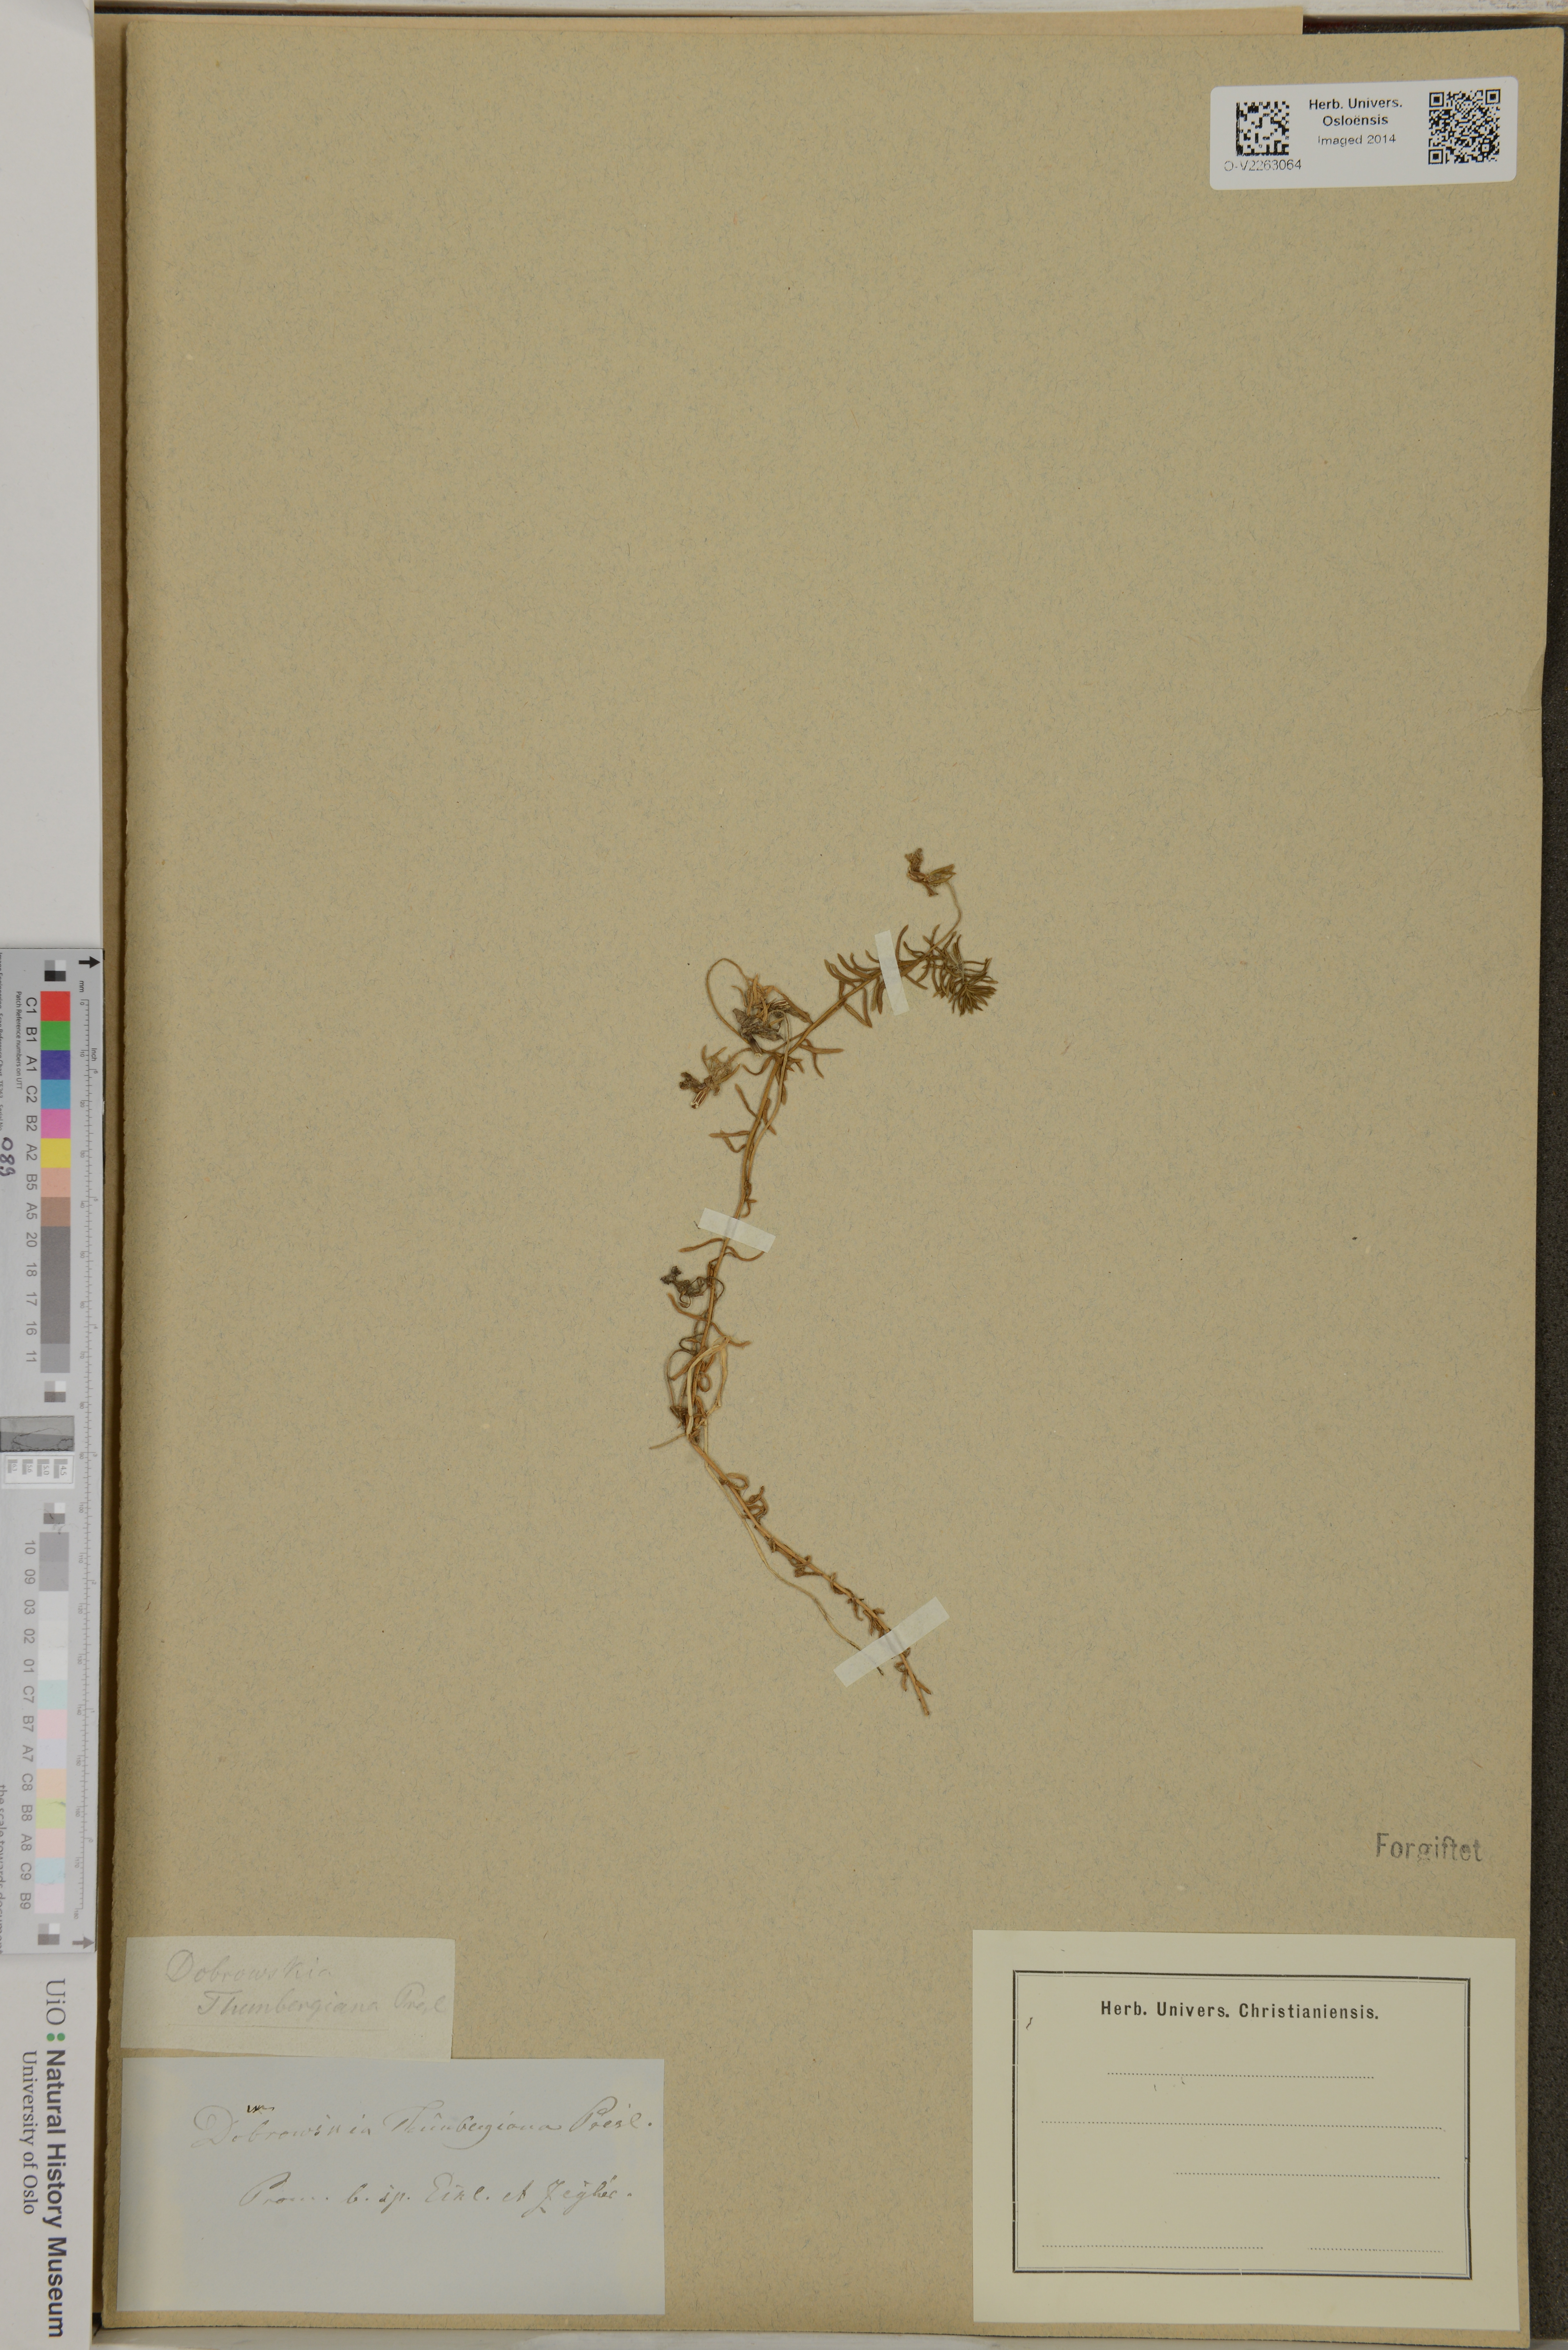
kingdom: Plantae
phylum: Tracheophyta
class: Magnoliopsida
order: Asterales
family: Campanulaceae
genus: Monopsis
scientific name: Monopsis scabra
